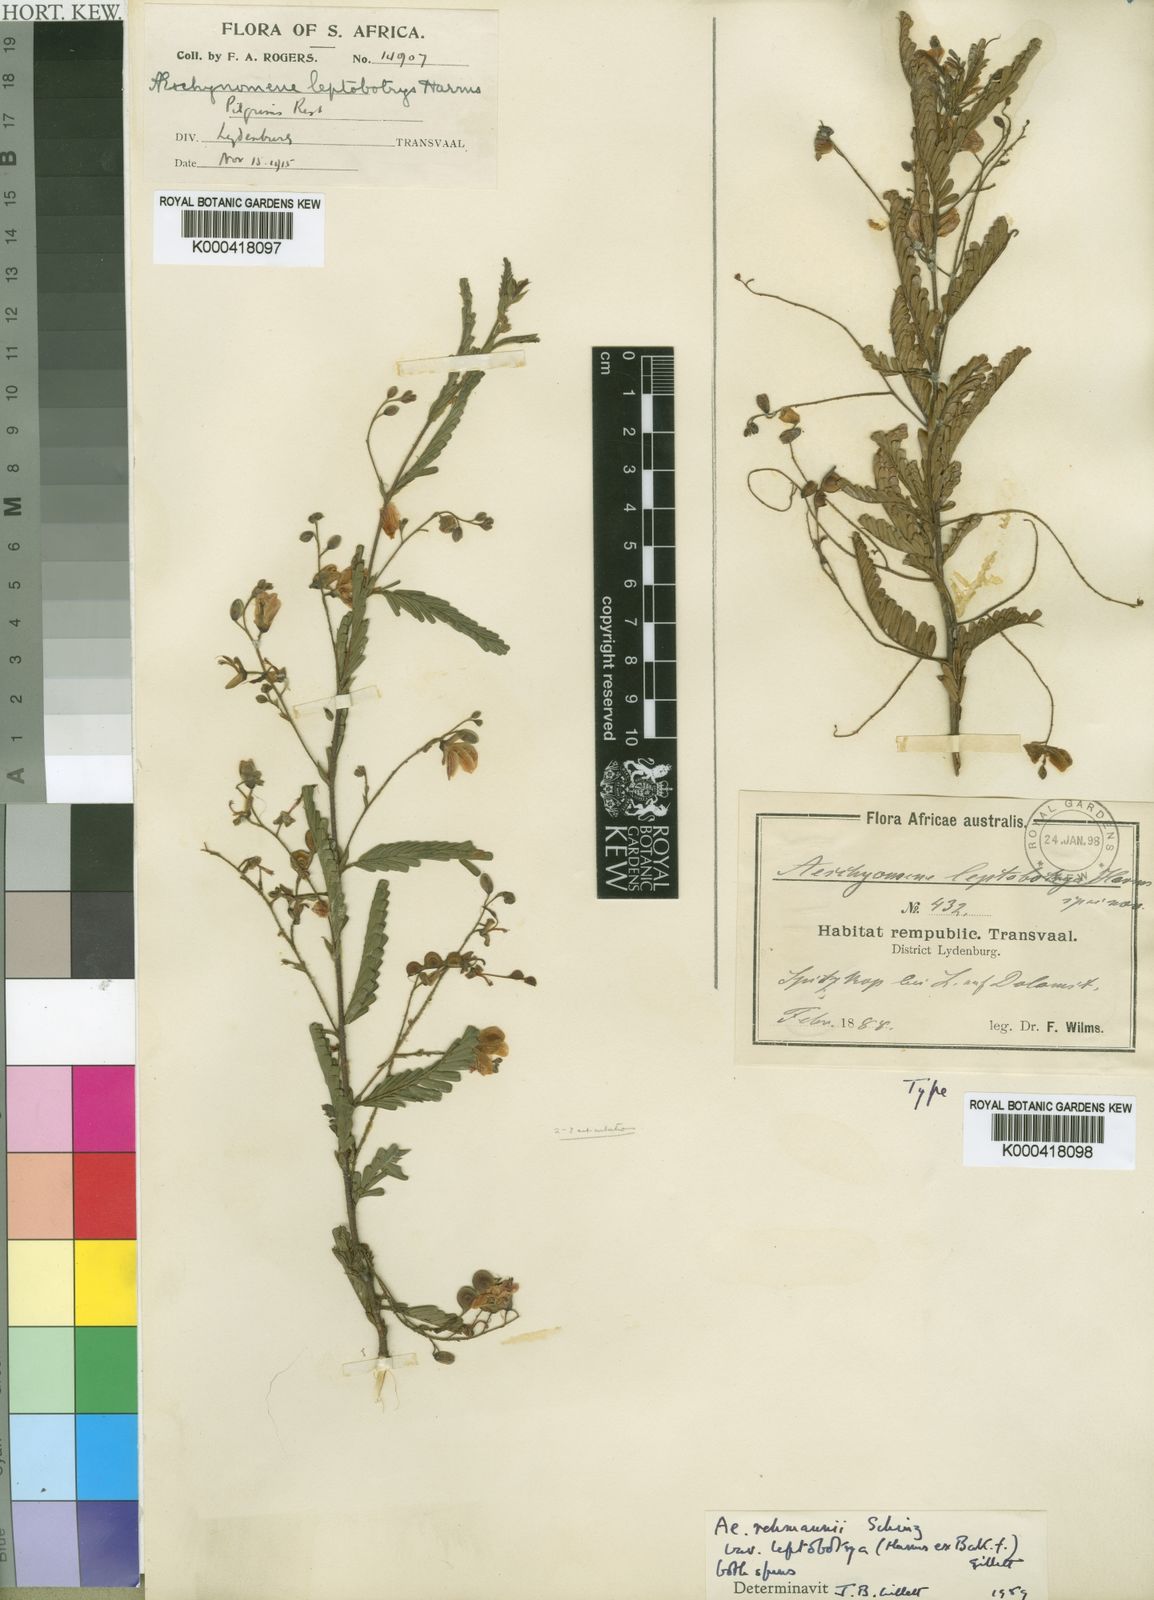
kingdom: Plantae
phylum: Tracheophyta
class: Magnoliopsida
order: Fabales
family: Fabaceae
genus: Aeschynomene
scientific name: Aeschynomene rehmannii
